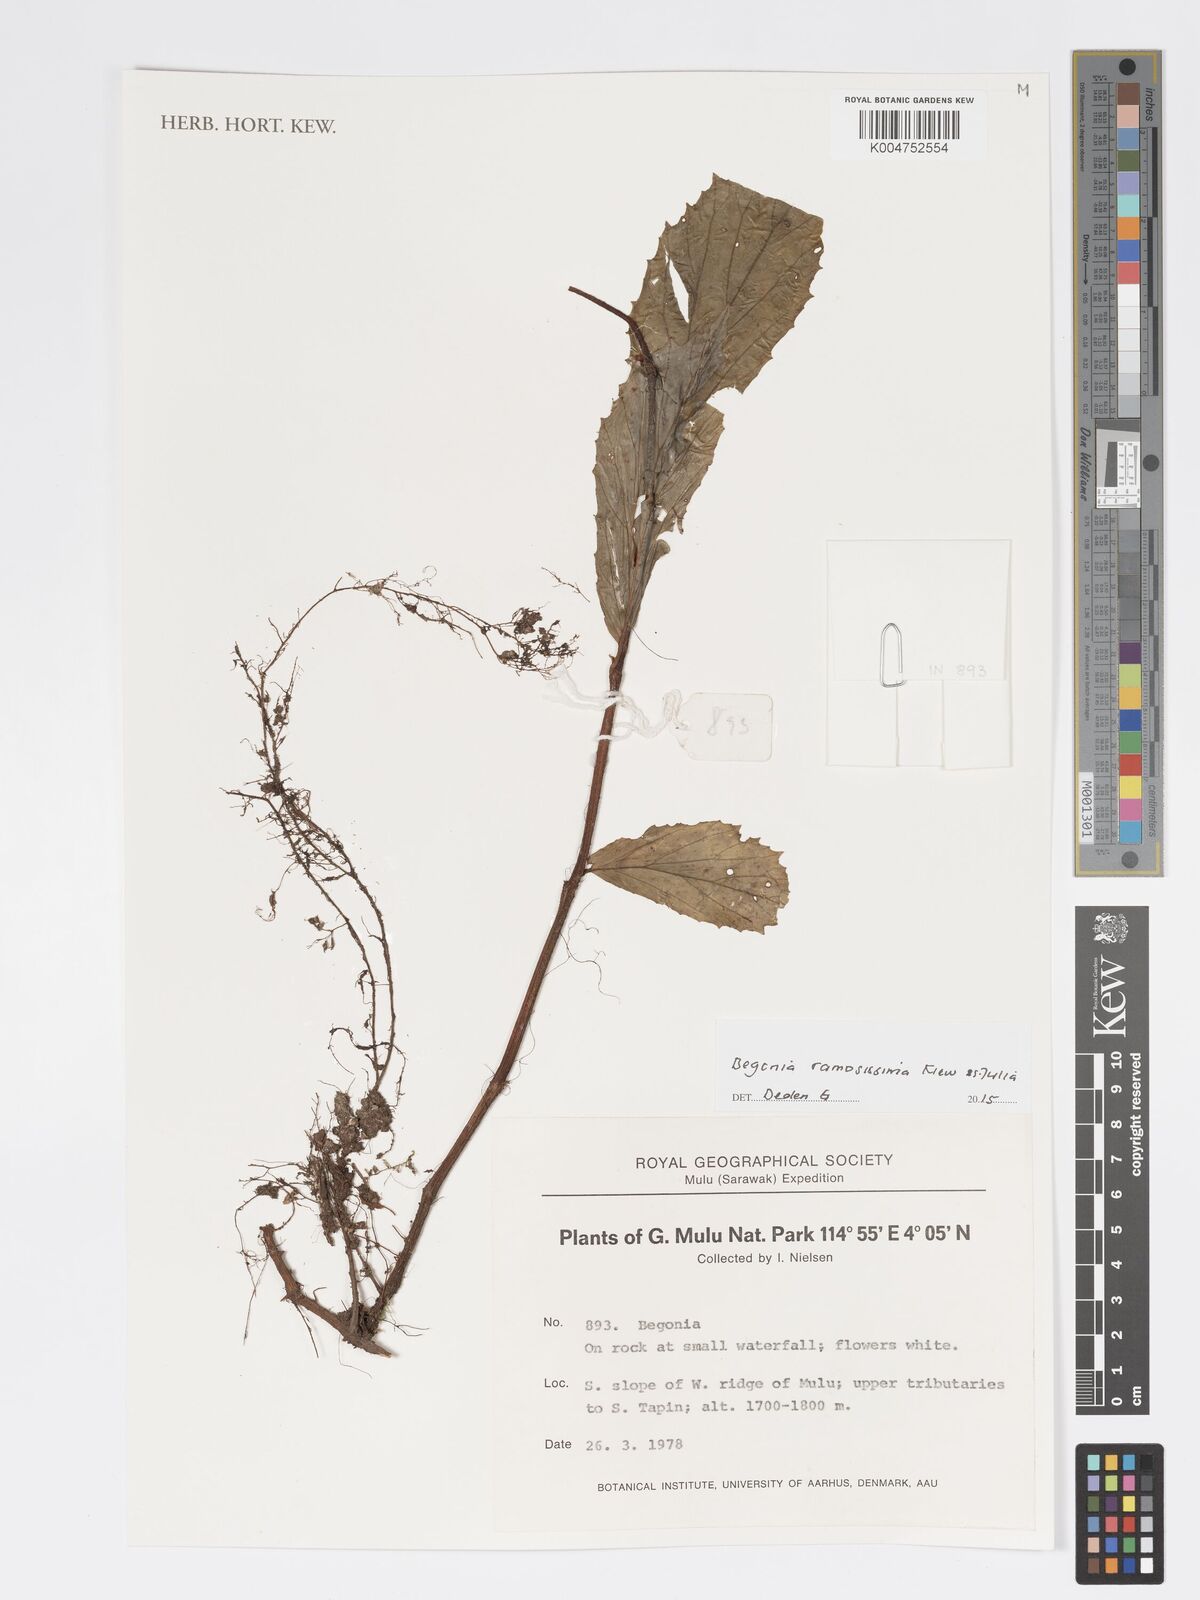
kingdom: Plantae
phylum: Tracheophyta
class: Magnoliopsida
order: Cucurbitales
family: Begoniaceae
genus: Begonia
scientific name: Begonia ramosissima
